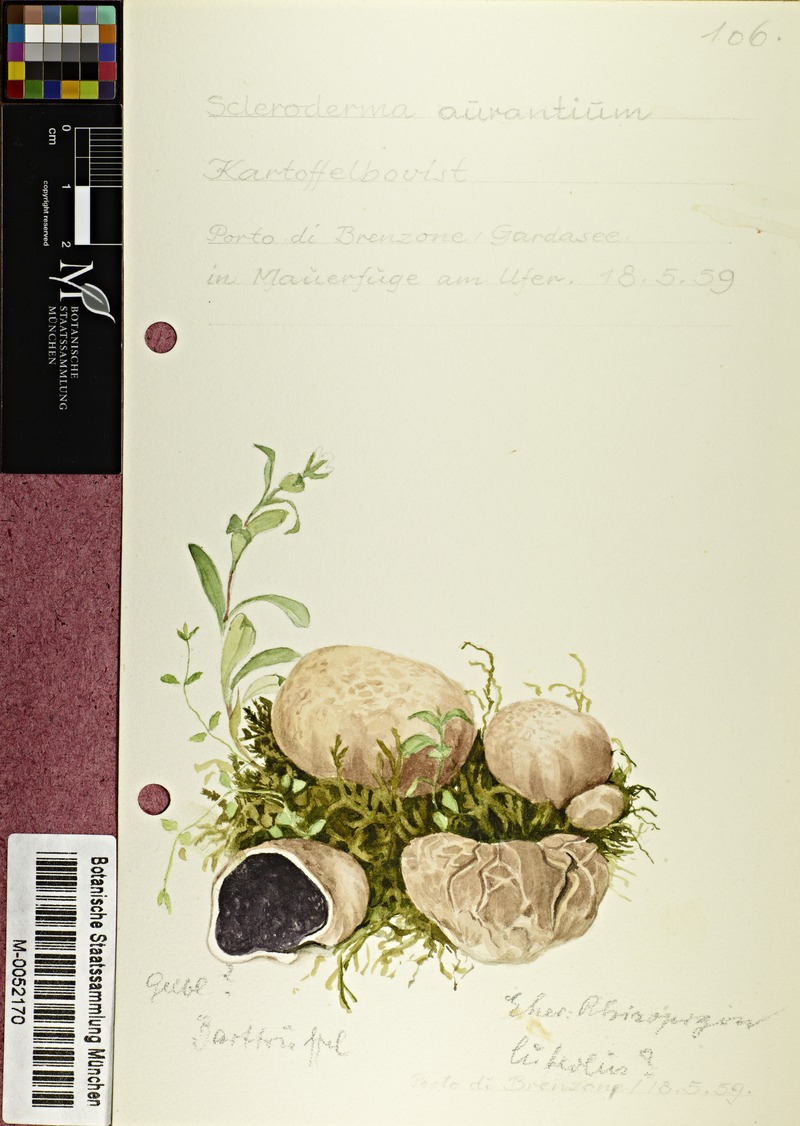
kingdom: Fungi
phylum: Basidiomycota
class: Agaricomycetes
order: Boletales
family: Sclerodermataceae
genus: Scleroderma
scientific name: Scleroderma citrinum
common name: Common earthball
